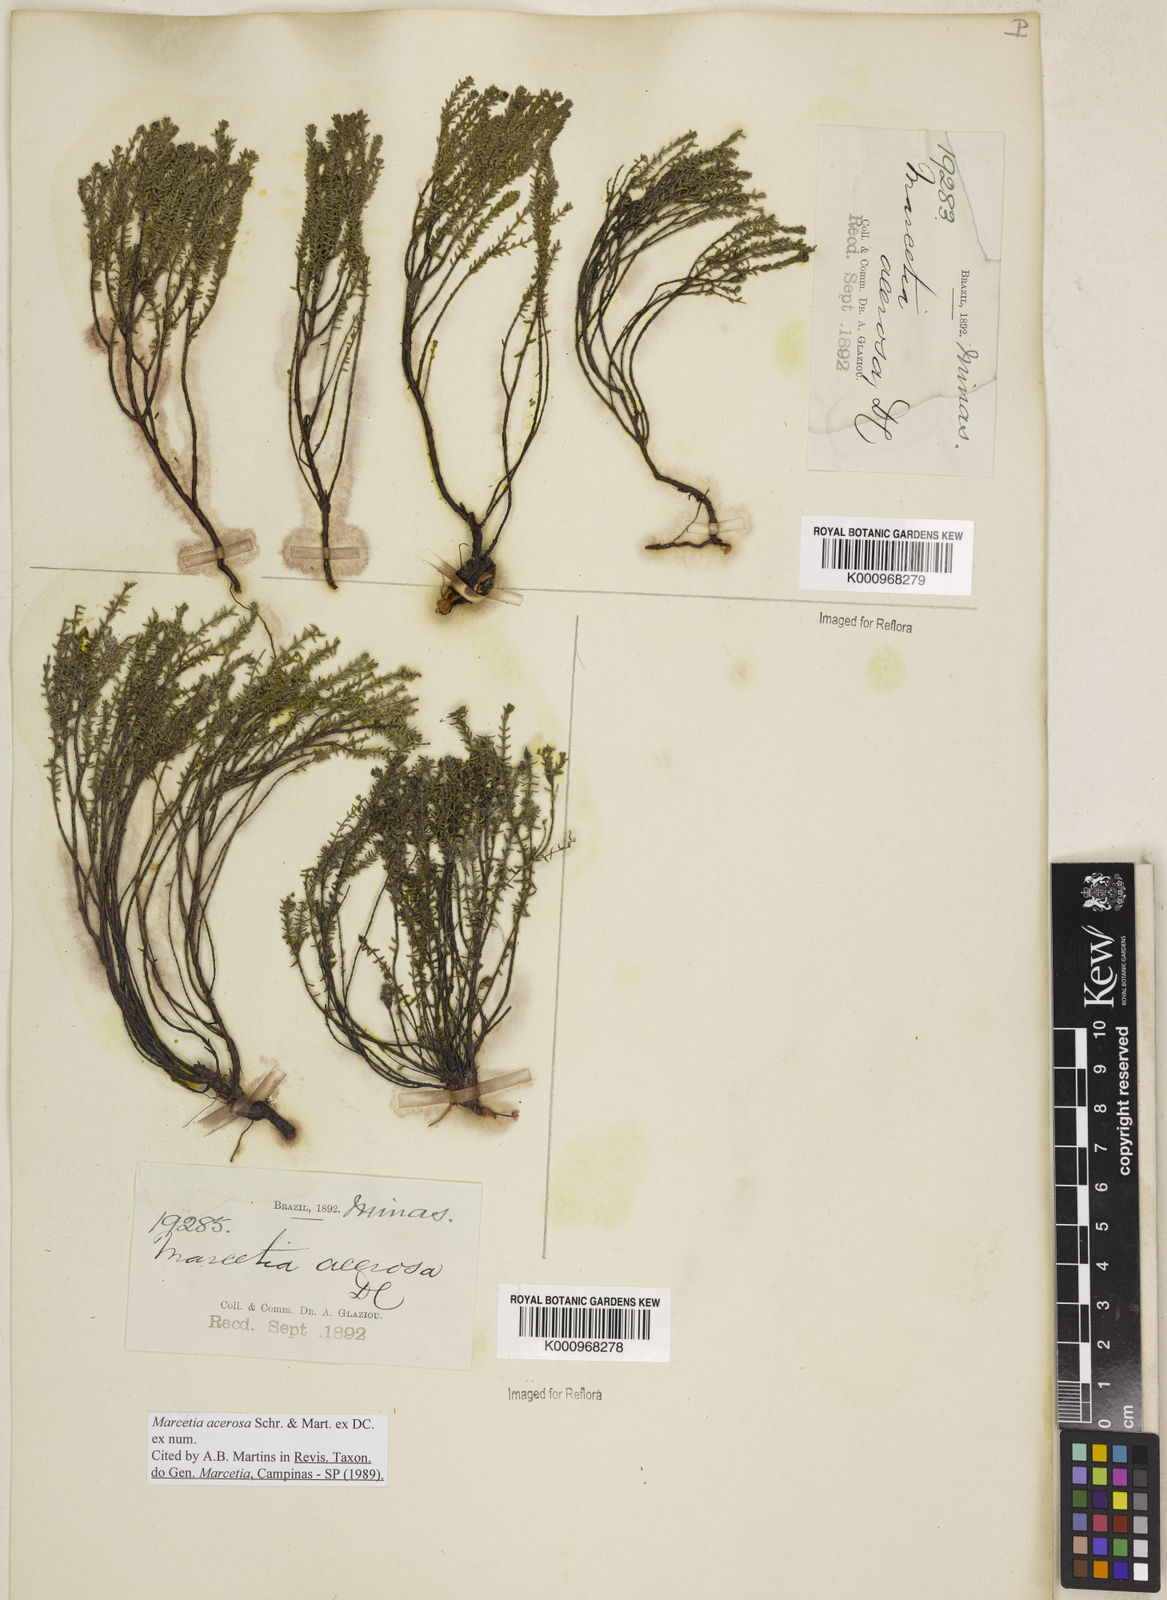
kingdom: Plantae
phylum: Tracheophyta
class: Magnoliopsida
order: Myrtales
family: Melastomataceae
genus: Marcetia
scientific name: Marcetia acerosa
